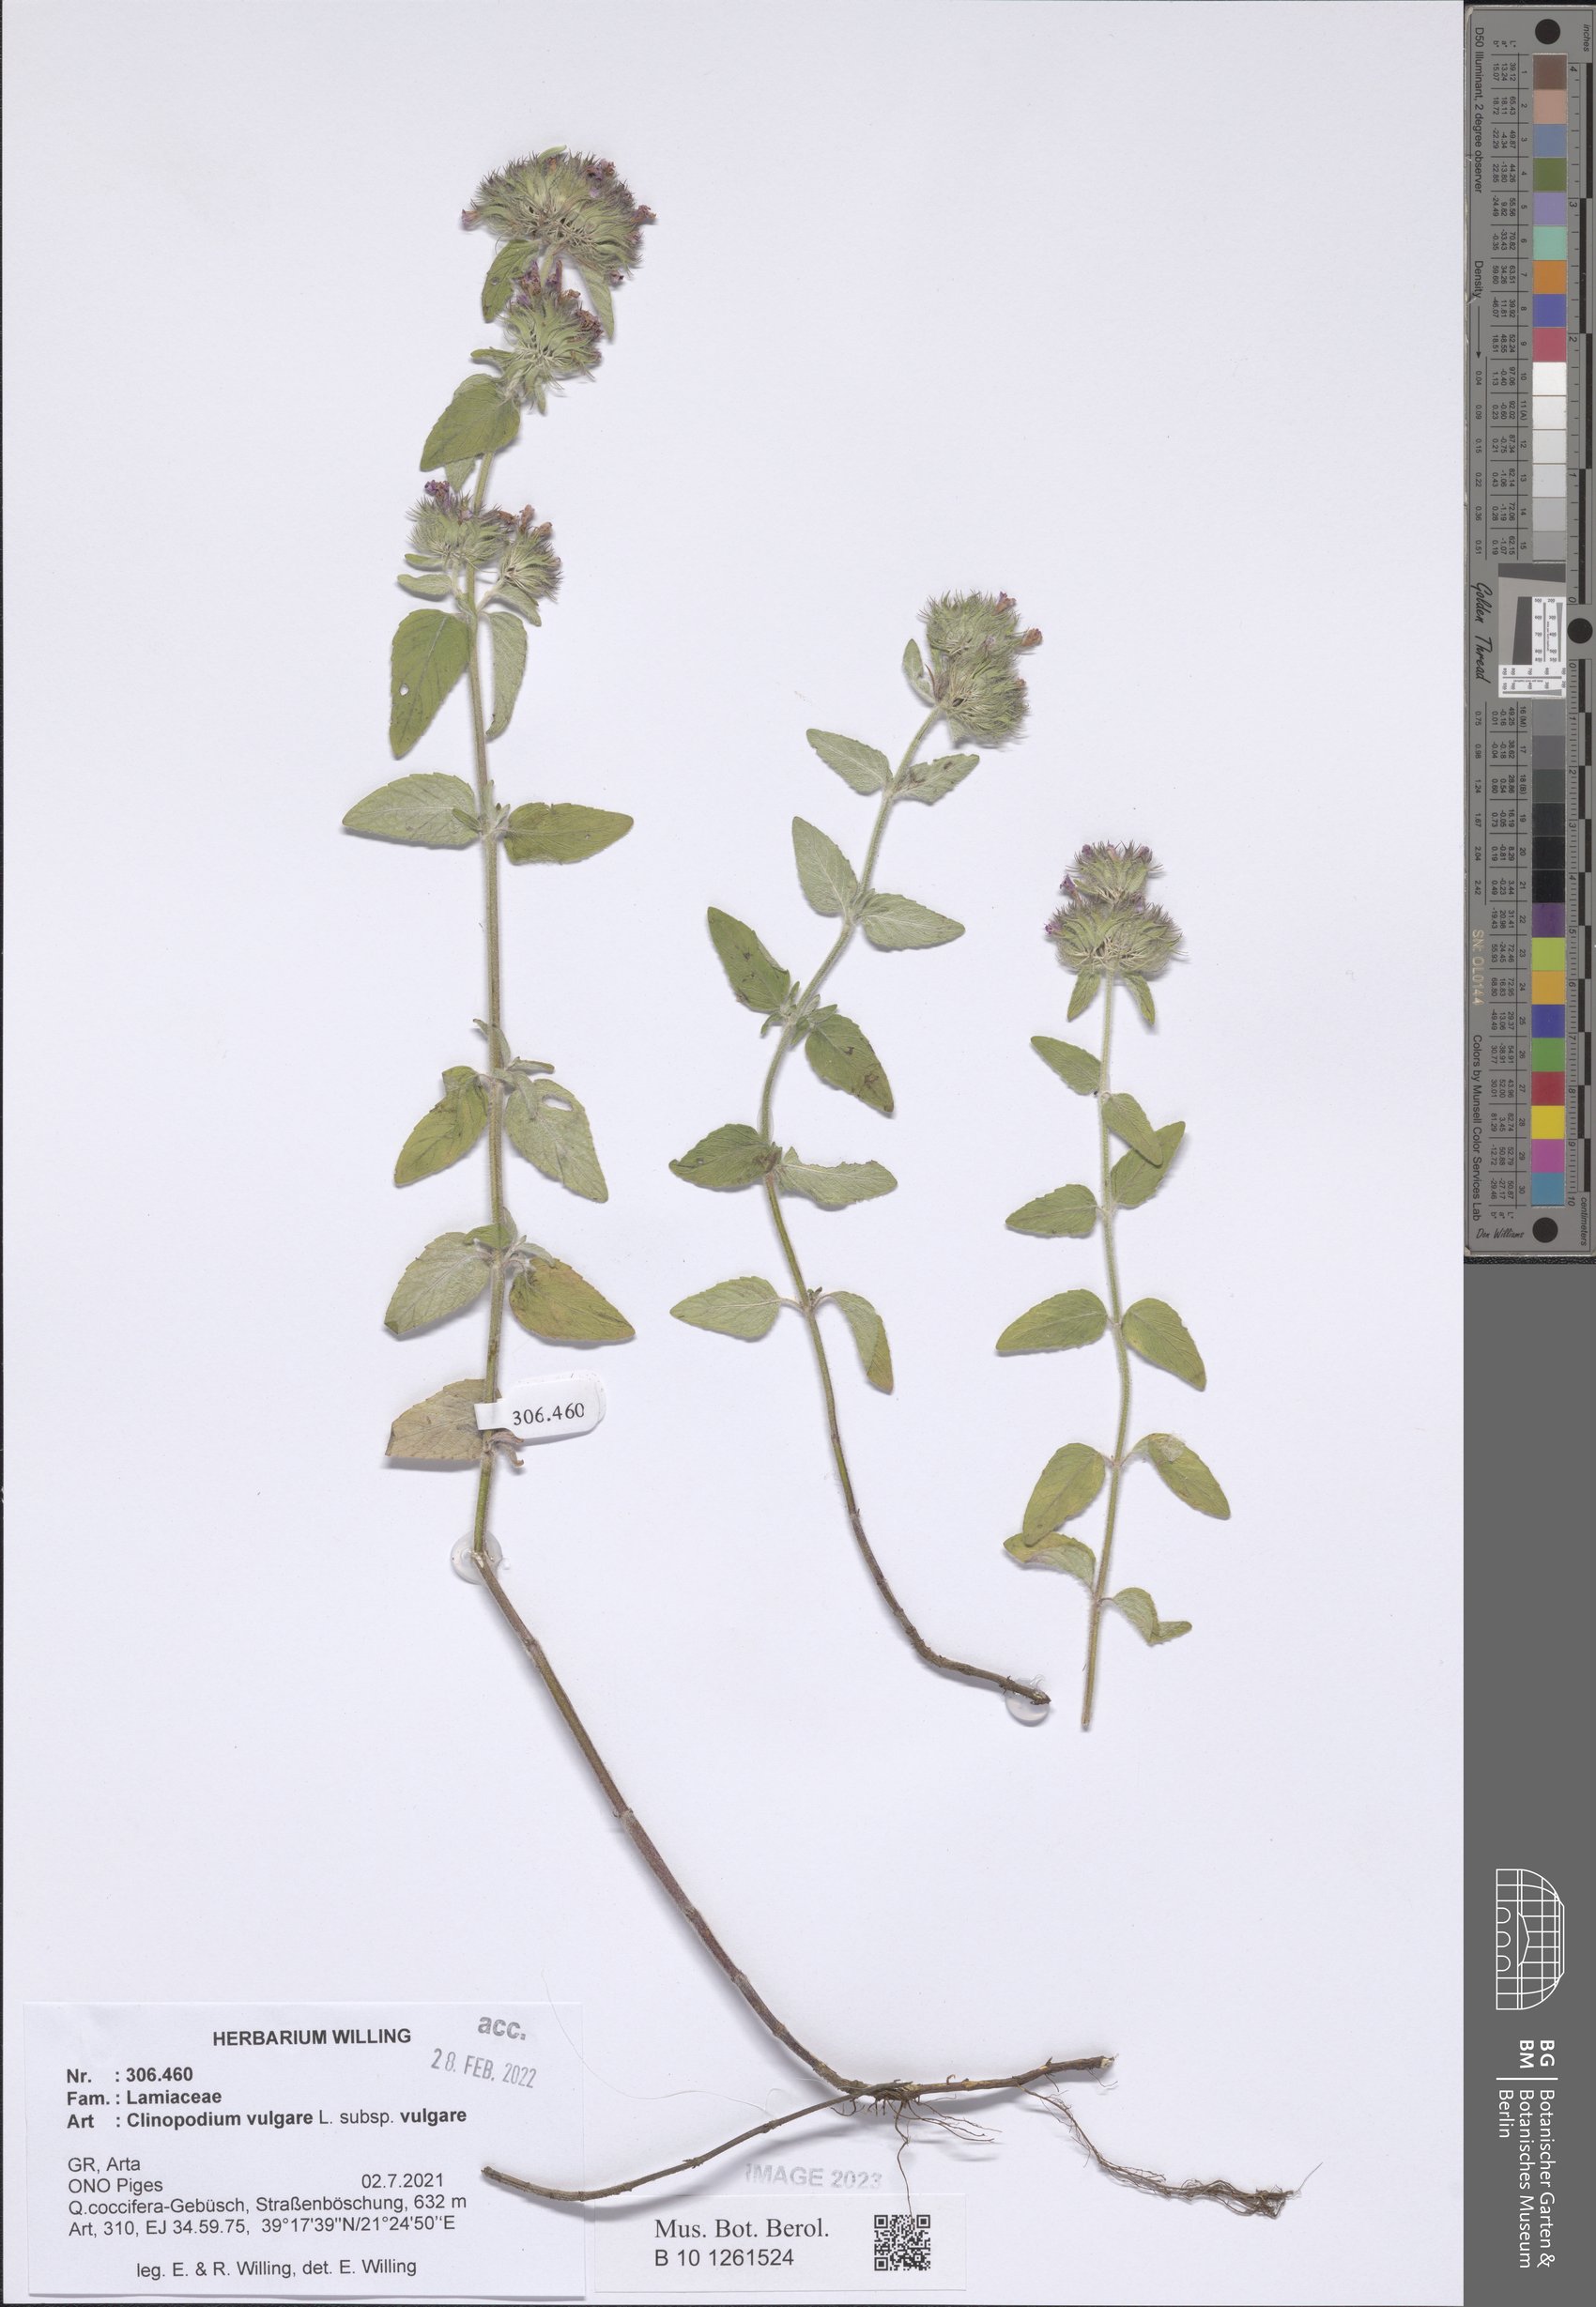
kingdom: Plantae
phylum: Tracheophyta
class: Magnoliopsida
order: Lamiales
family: Lamiaceae
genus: Clinopodium
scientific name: Clinopodium vulgare
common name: Wild basil
